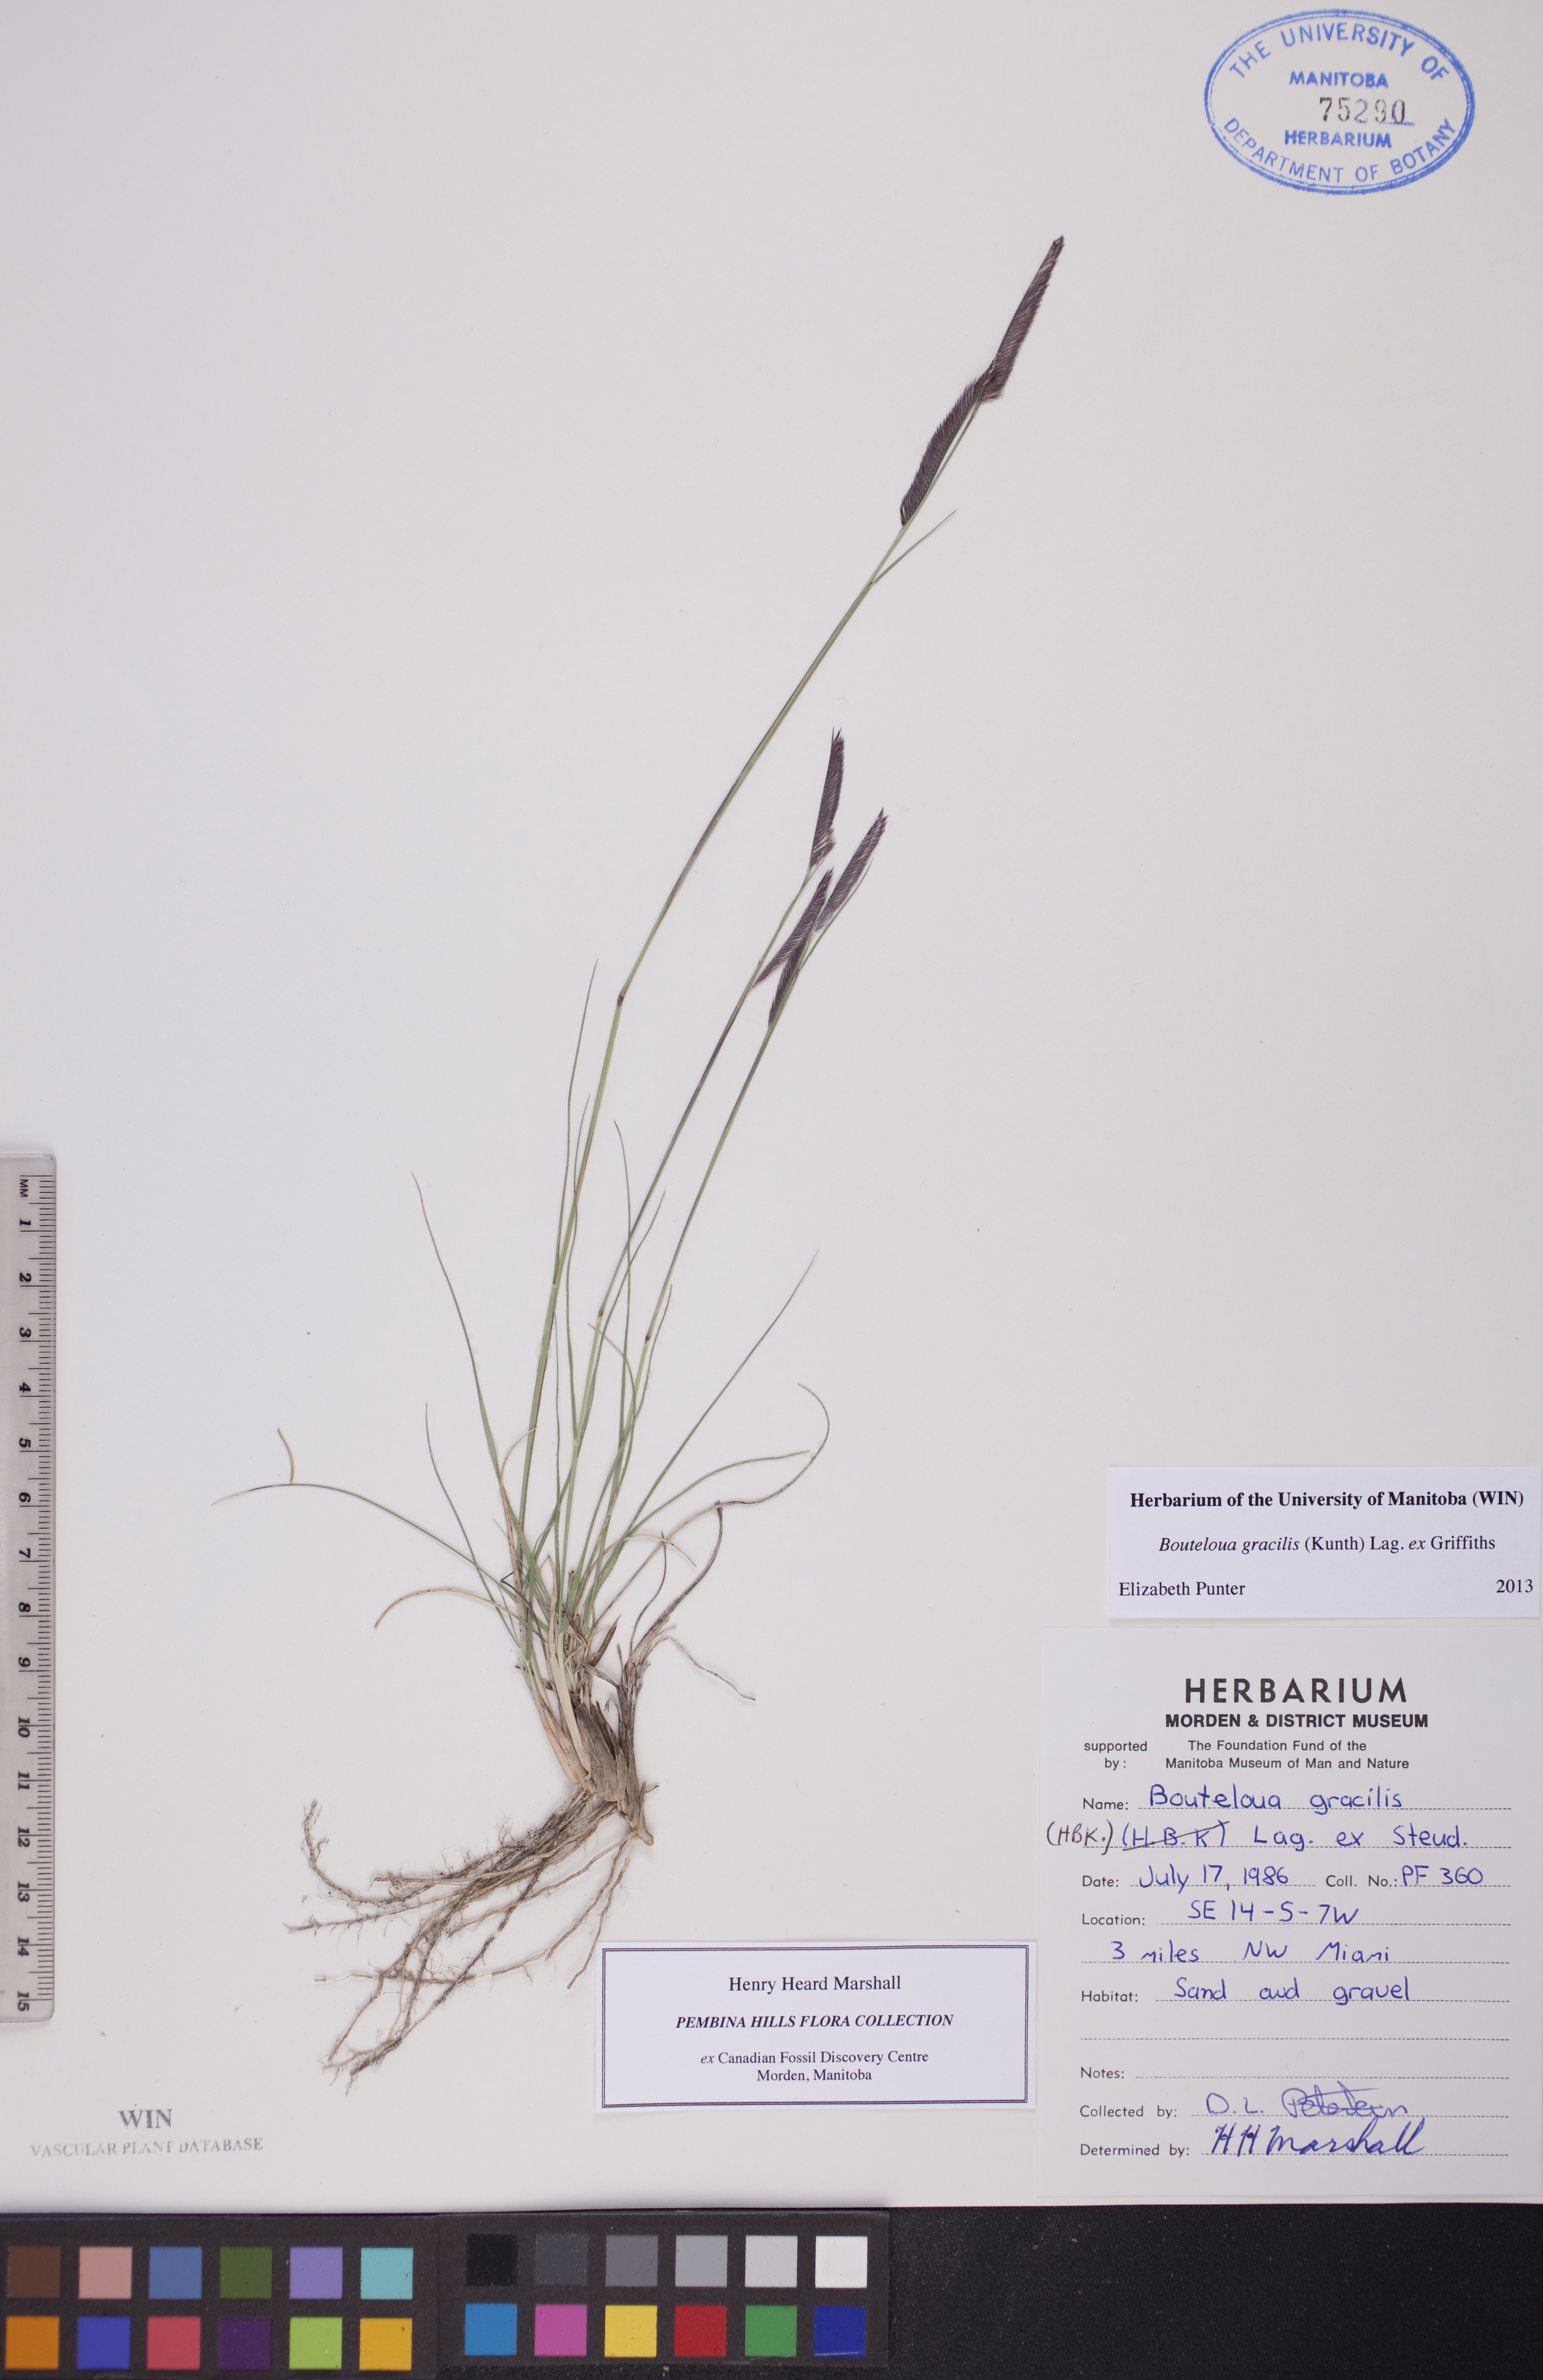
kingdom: Plantae
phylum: Tracheophyta
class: Liliopsida
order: Poales
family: Poaceae
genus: Bouteloua
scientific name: Bouteloua gracilis
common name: Blue grama
